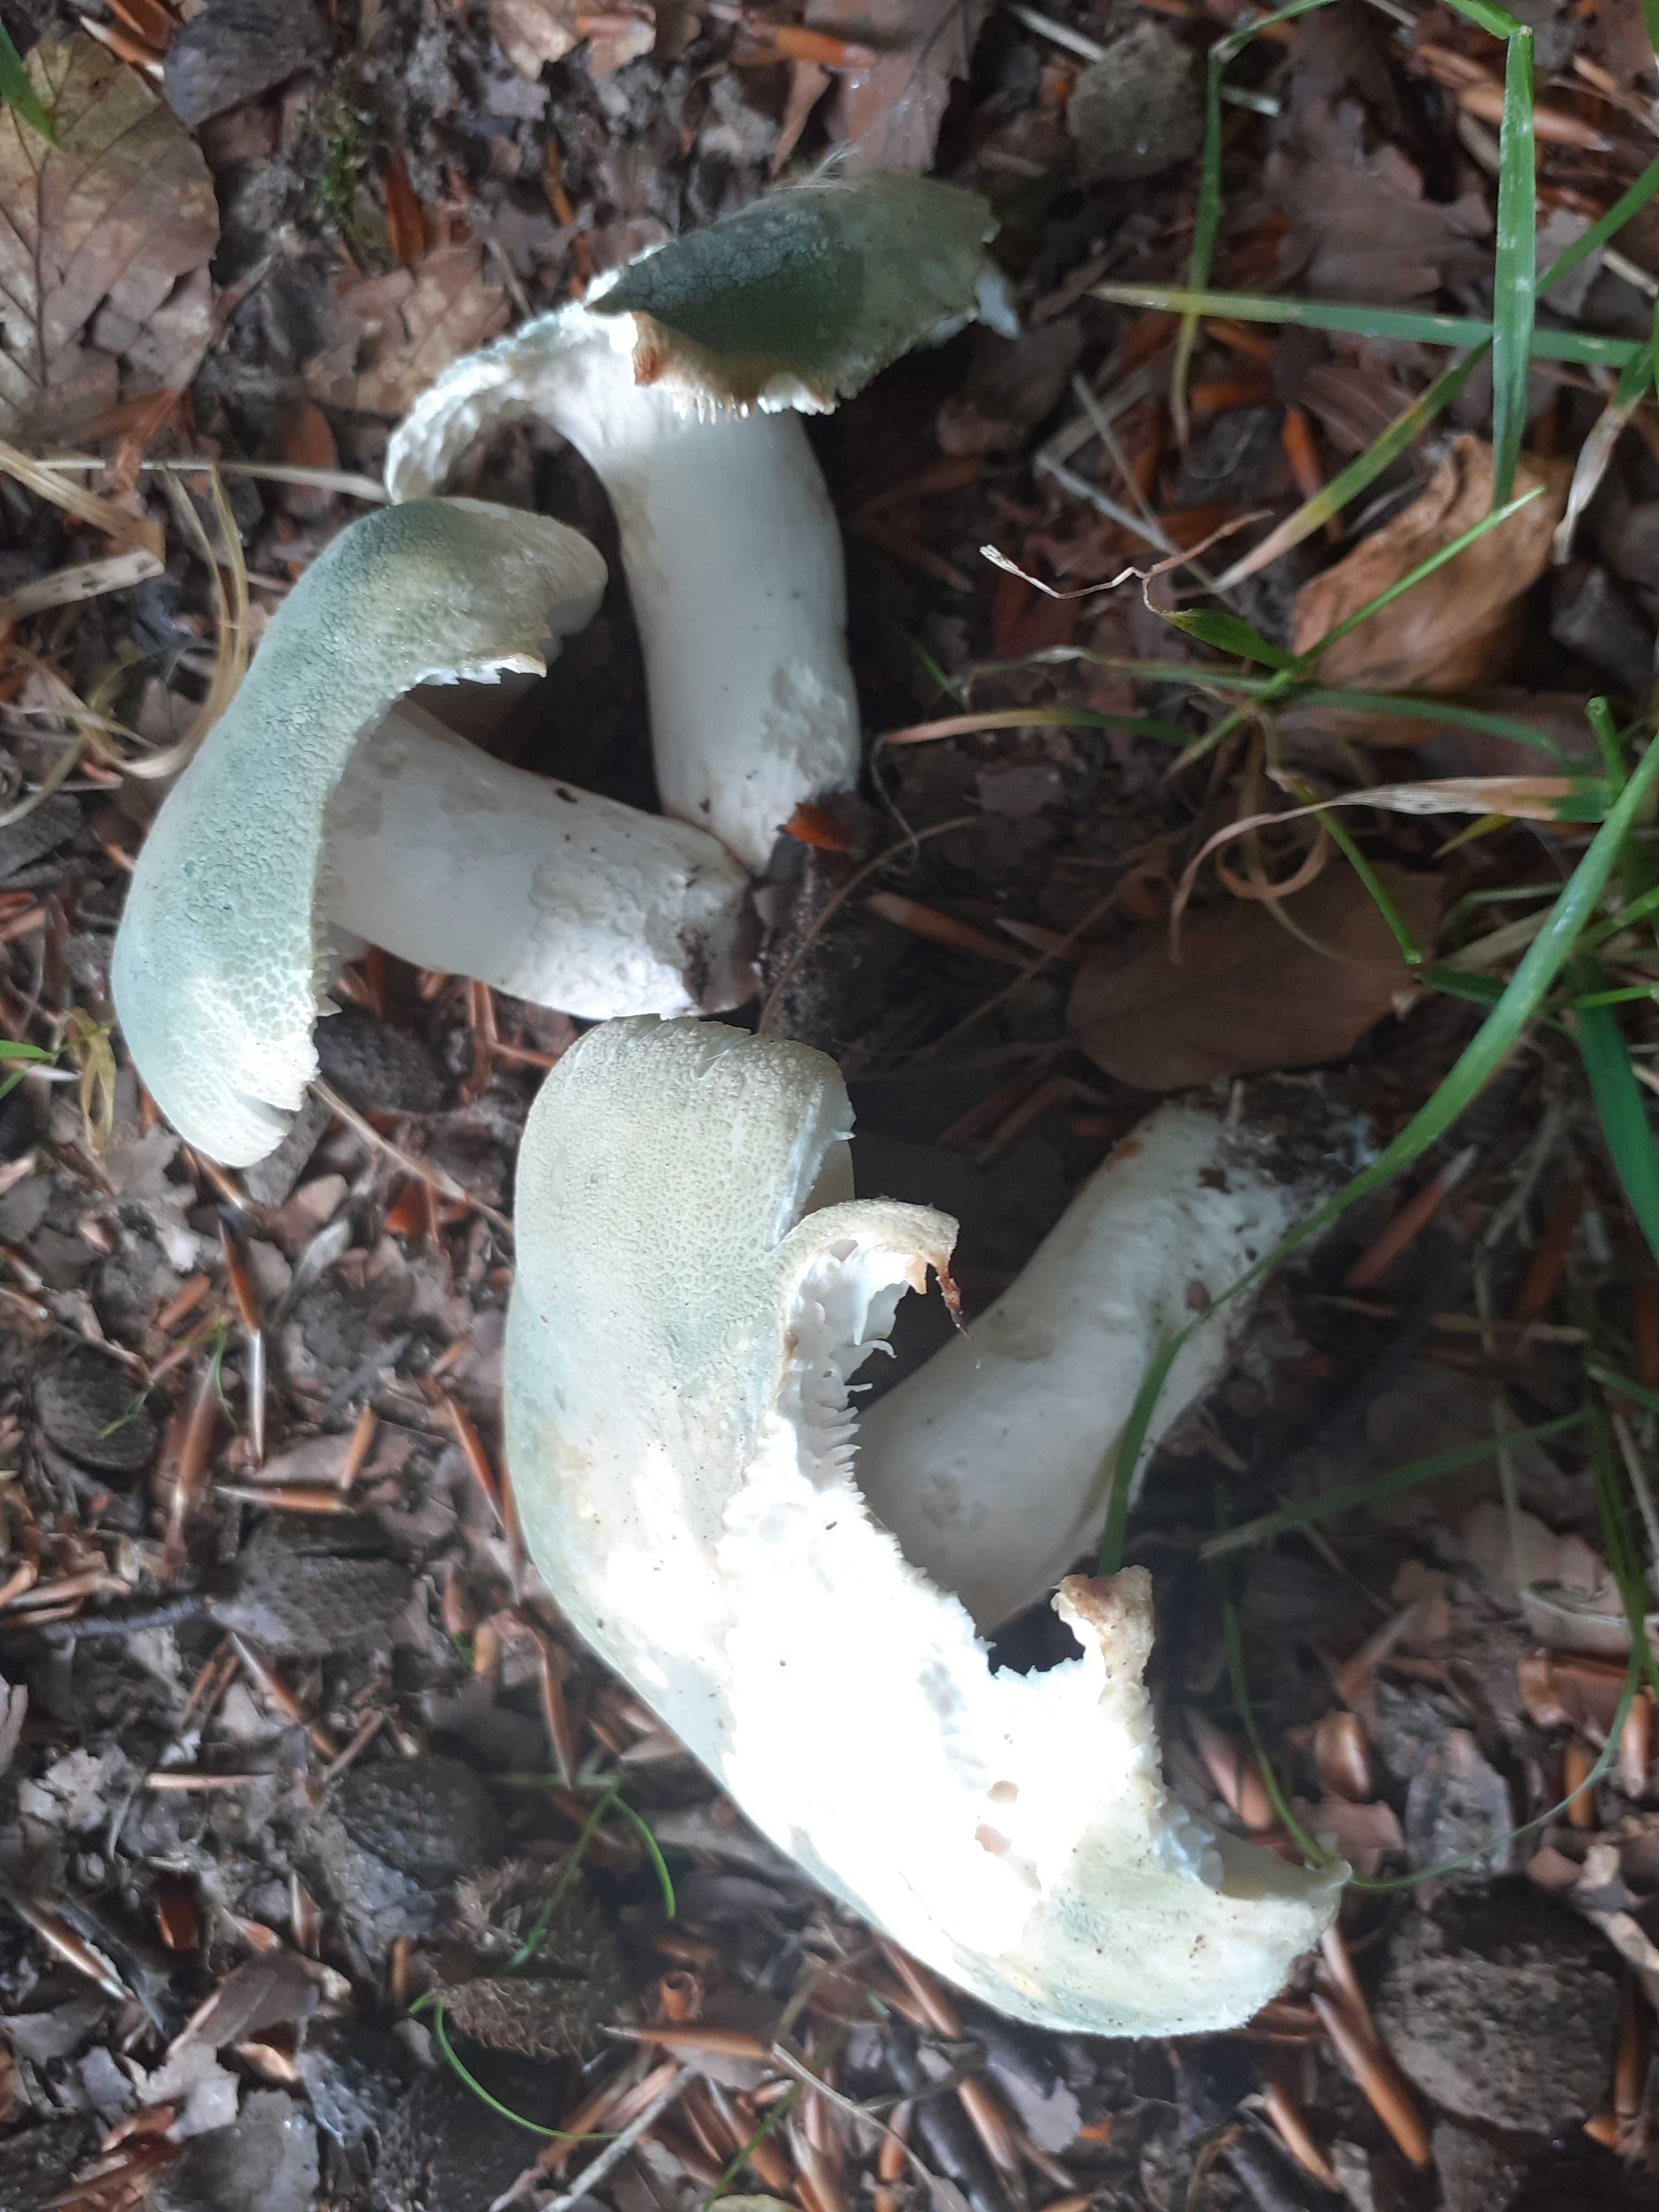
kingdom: Fungi
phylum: Basidiomycota
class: Agaricomycetes
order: Russulales
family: Russulaceae
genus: Russula
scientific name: Russula virescens
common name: spanskgrøn skørhat
